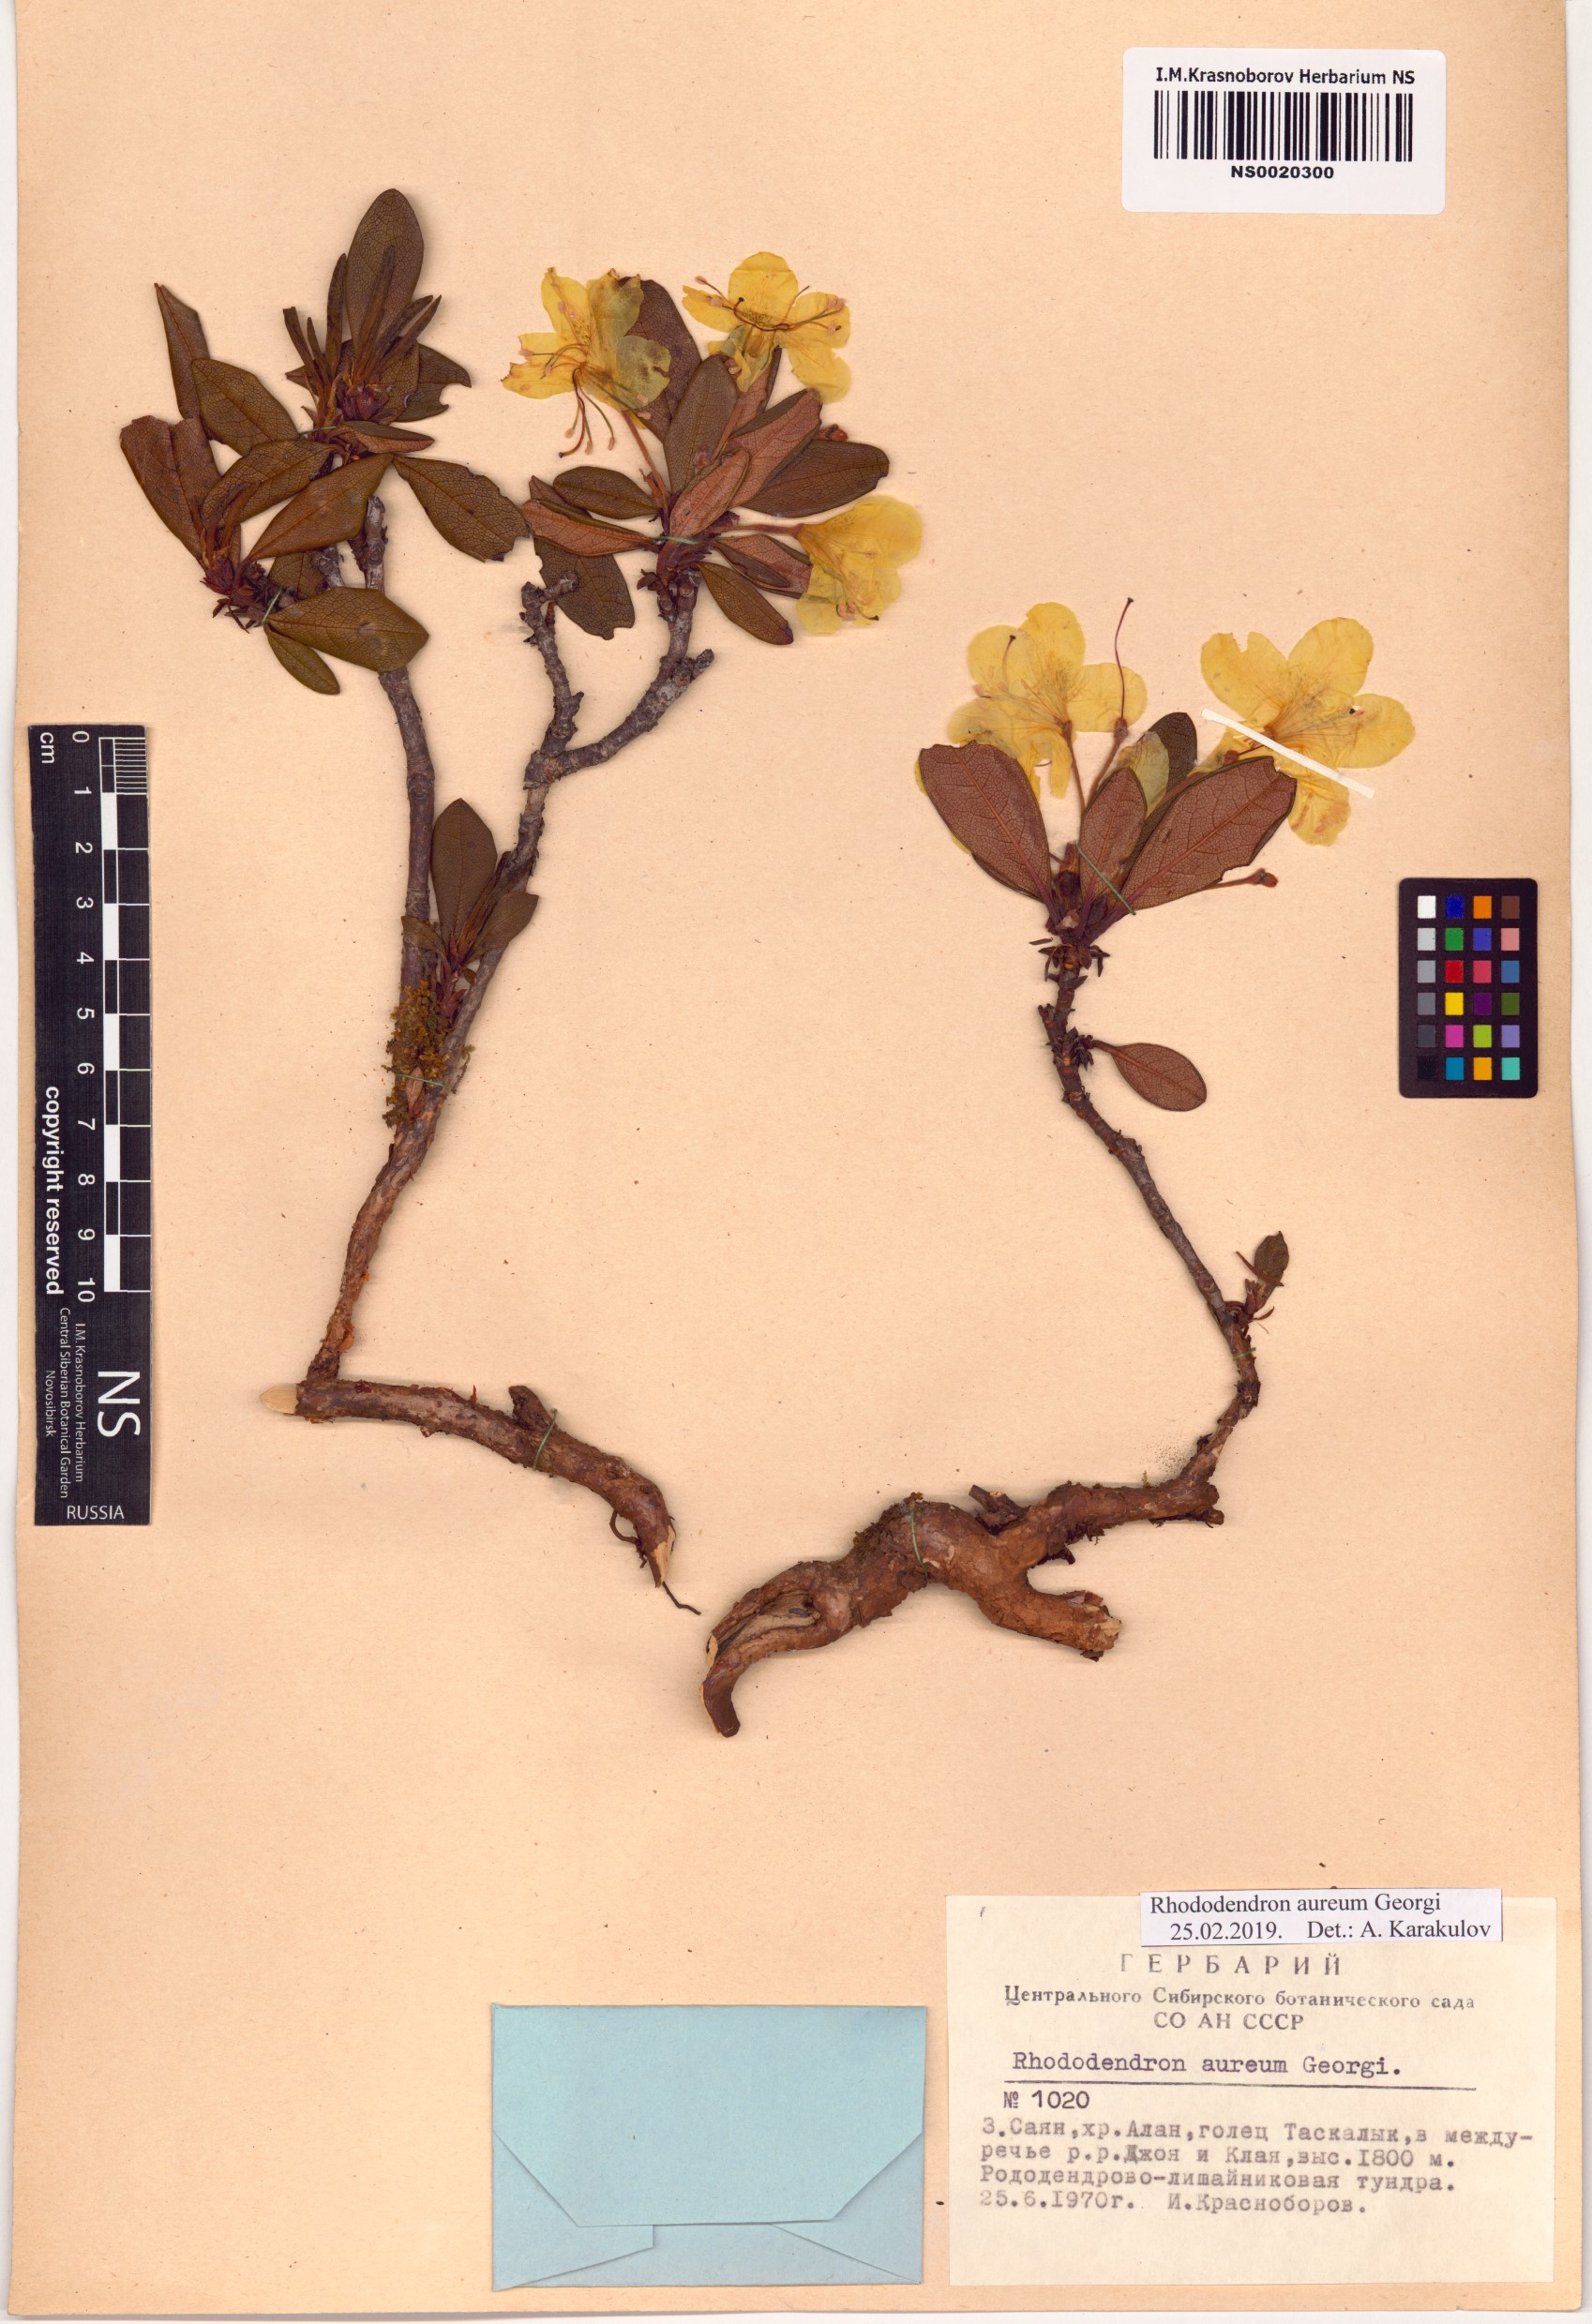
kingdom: Plantae
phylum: Tracheophyta
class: Magnoliopsida
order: Ericales
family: Ericaceae
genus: Rhododendron
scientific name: Rhododendron aureum
